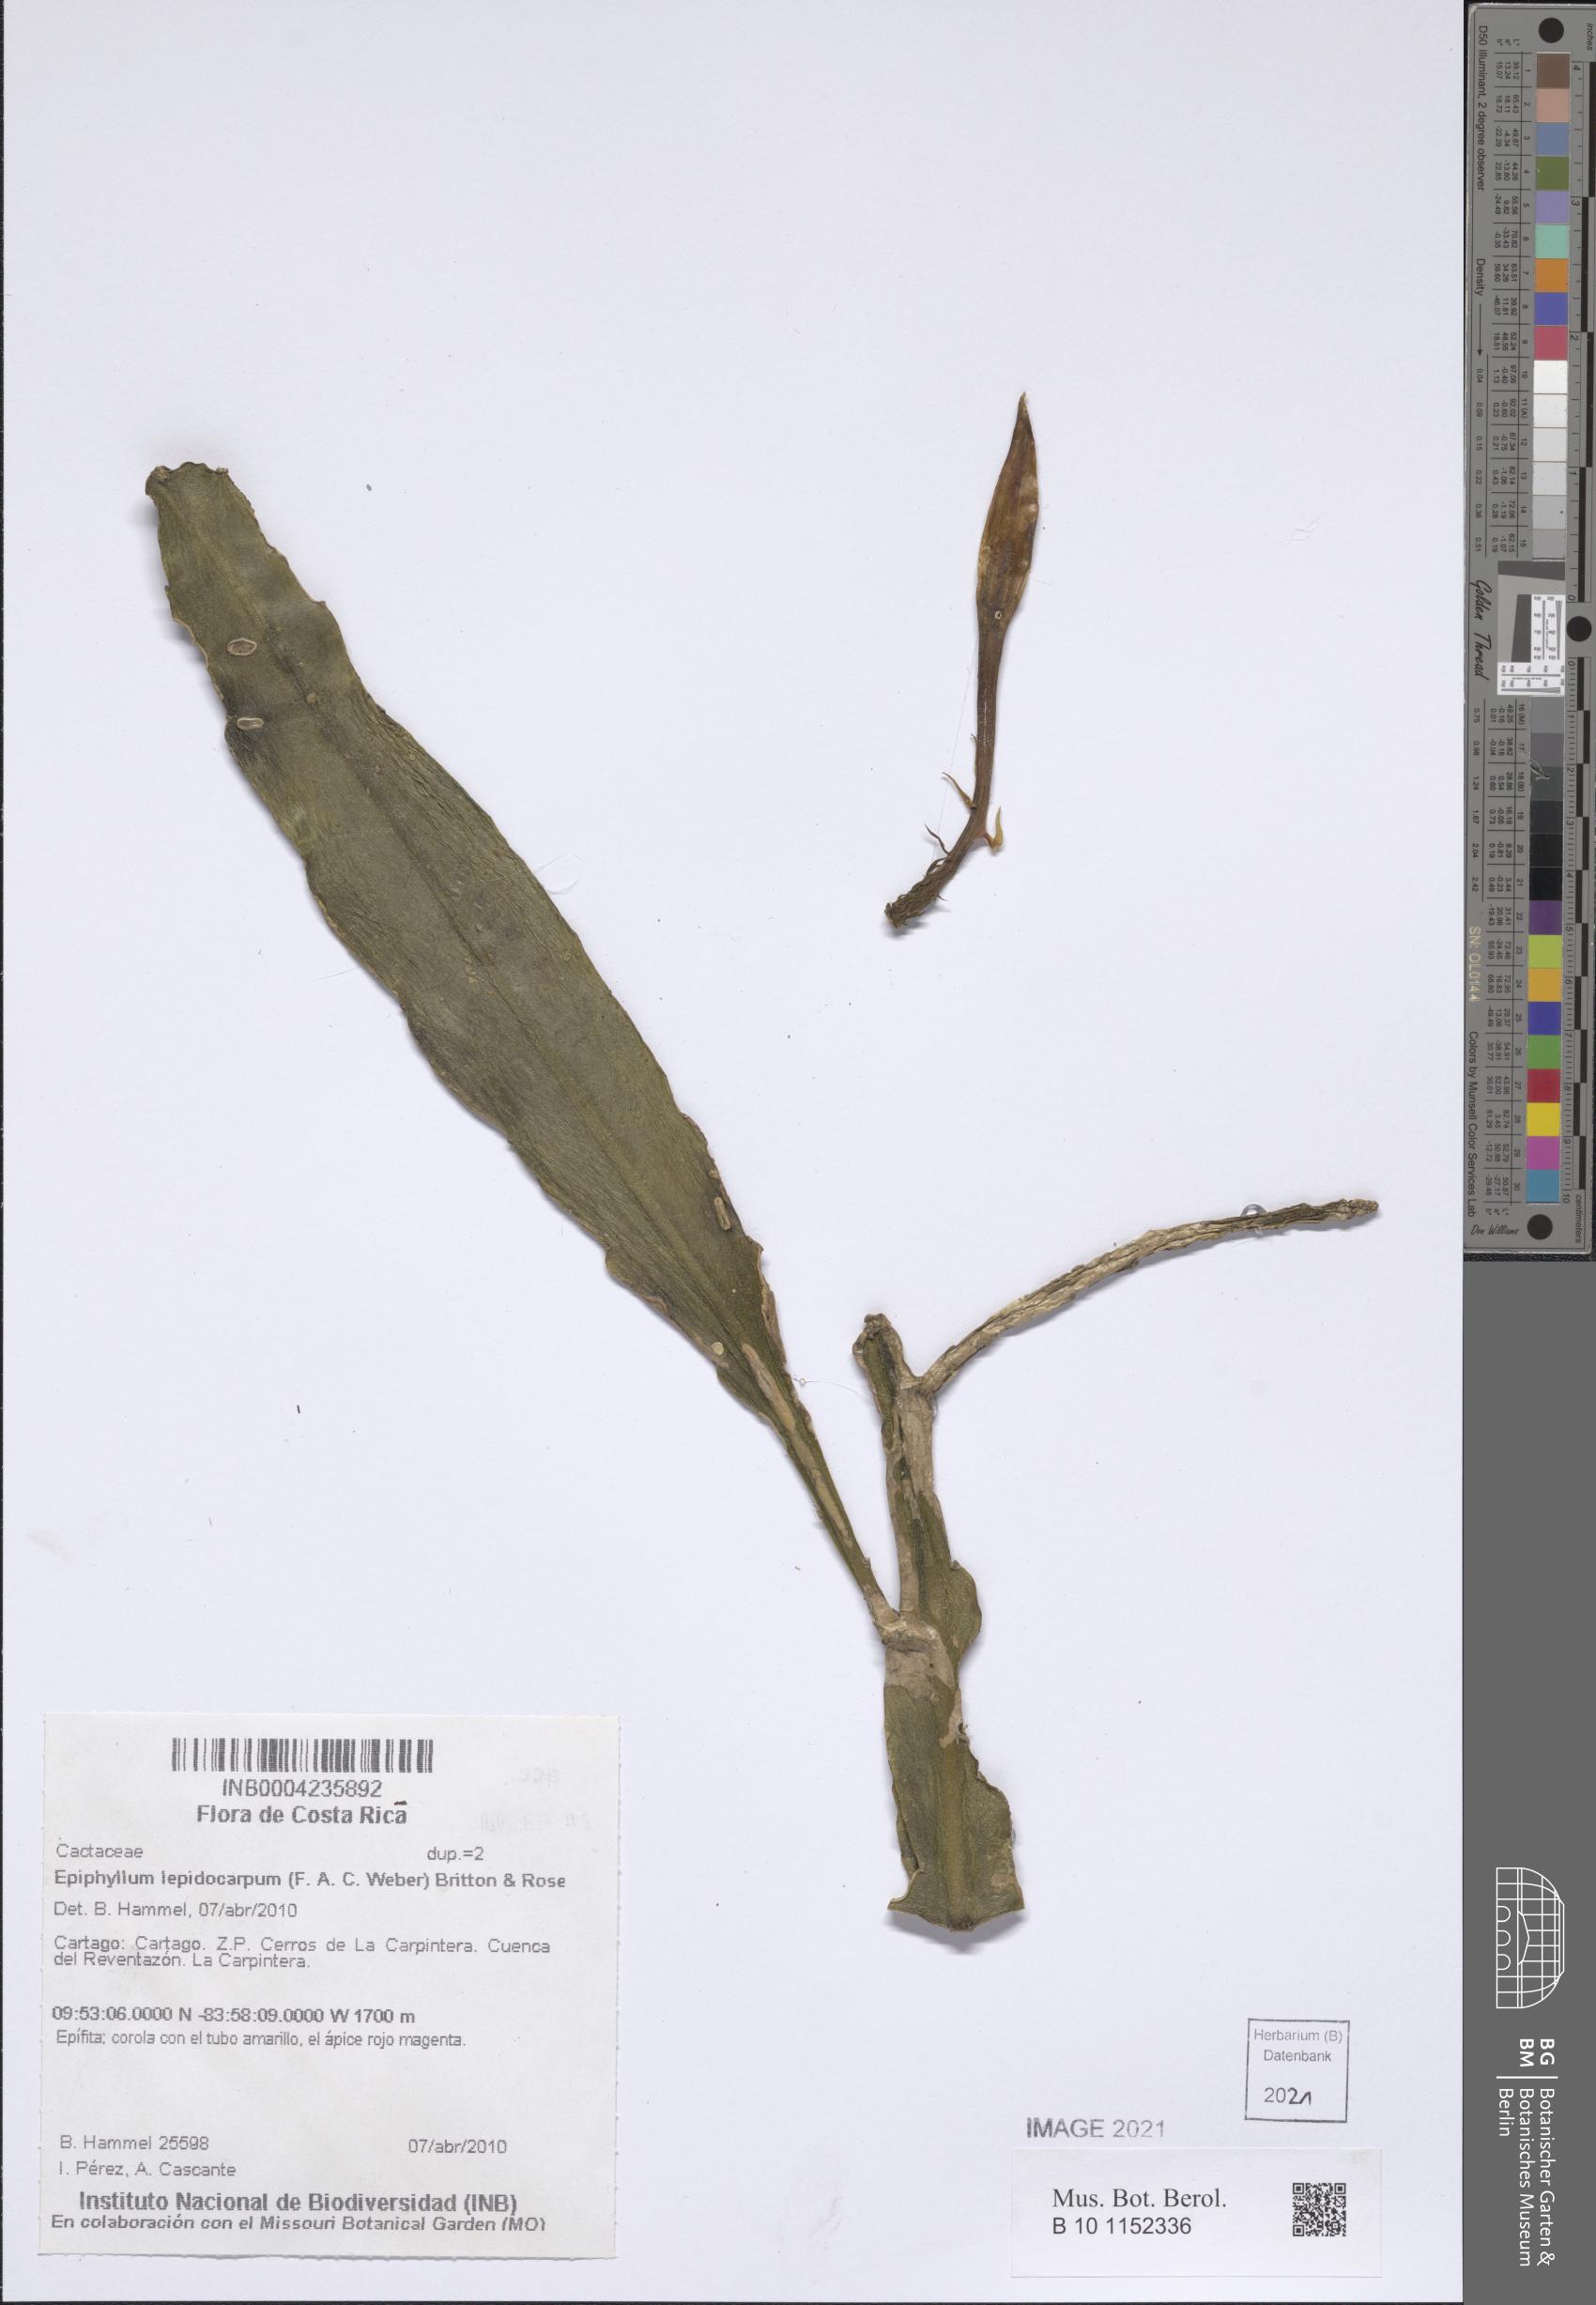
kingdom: Plantae
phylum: Tracheophyta
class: Magnoliopsida
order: Caryophyllales
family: Cactaceae
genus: Disocactus
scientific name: Disocactus lepidocarpus
